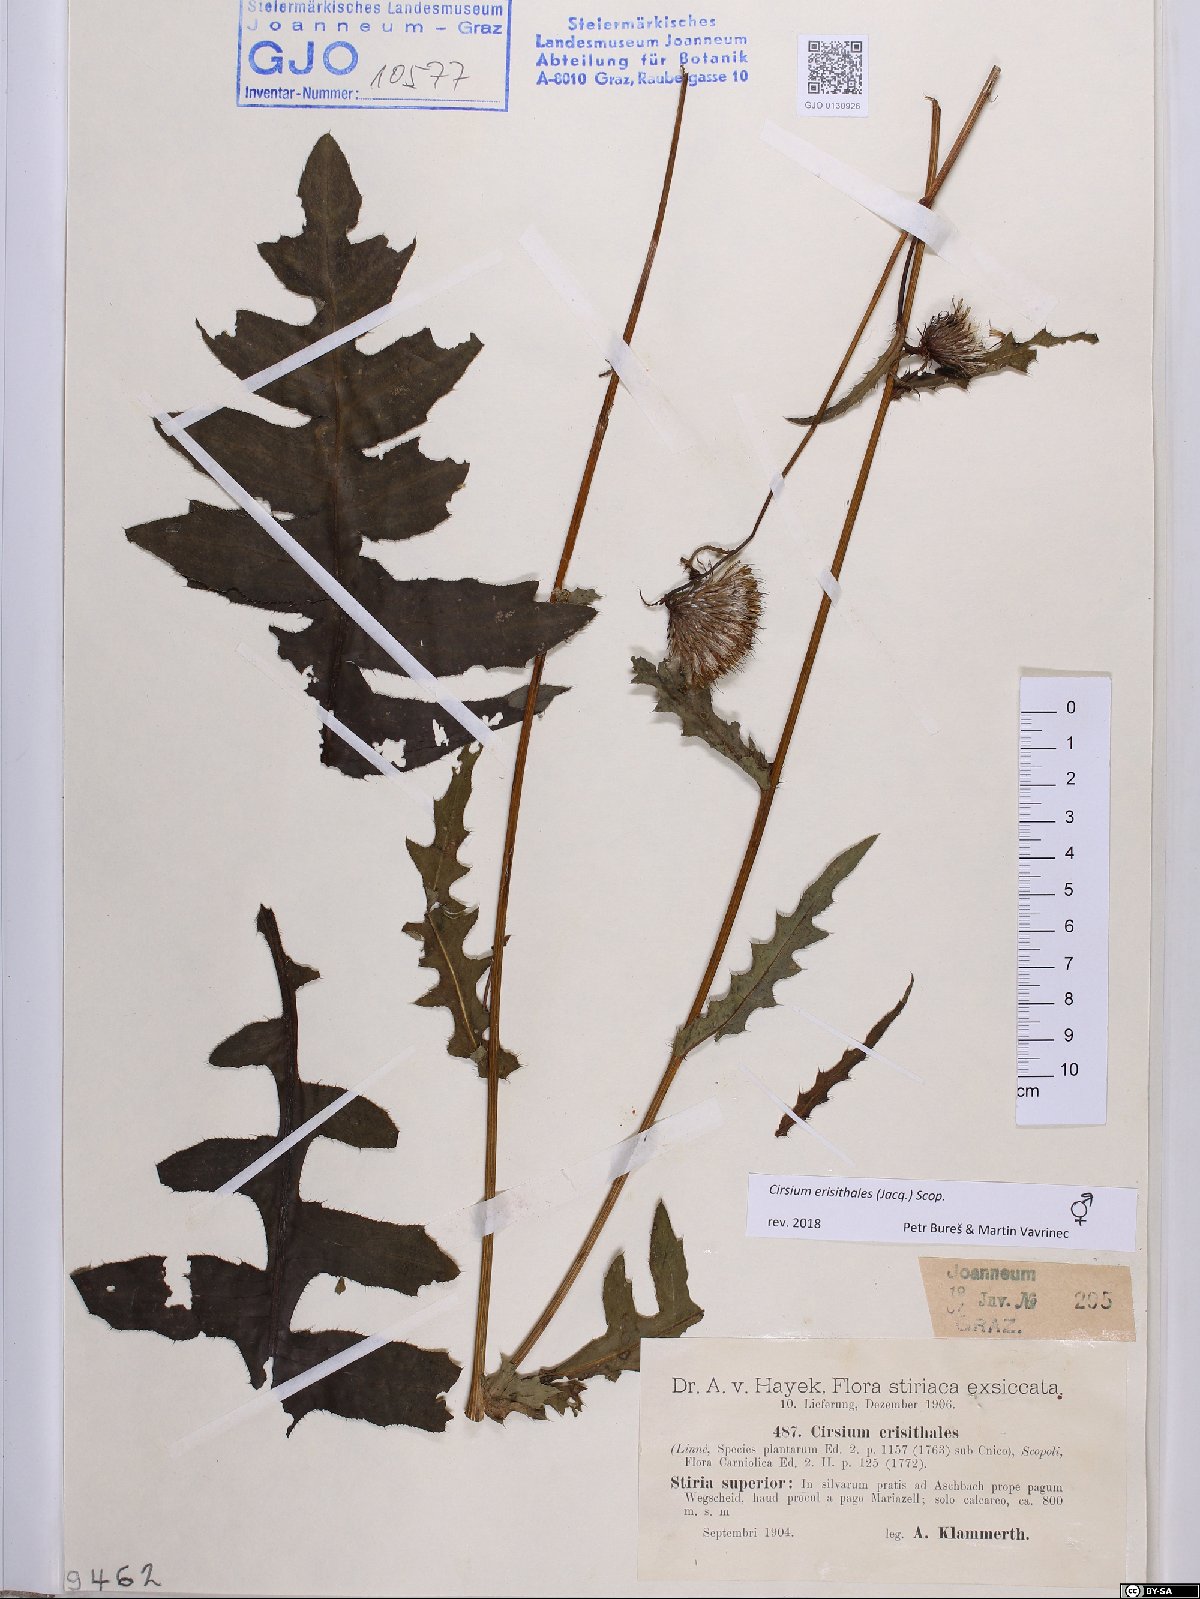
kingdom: Plantae
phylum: Tracheophyta
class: Magnoliopsida
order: Asterales
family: Asteraceae
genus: Cirsium
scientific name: Cirsium erisithales
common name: Yellow thistle
